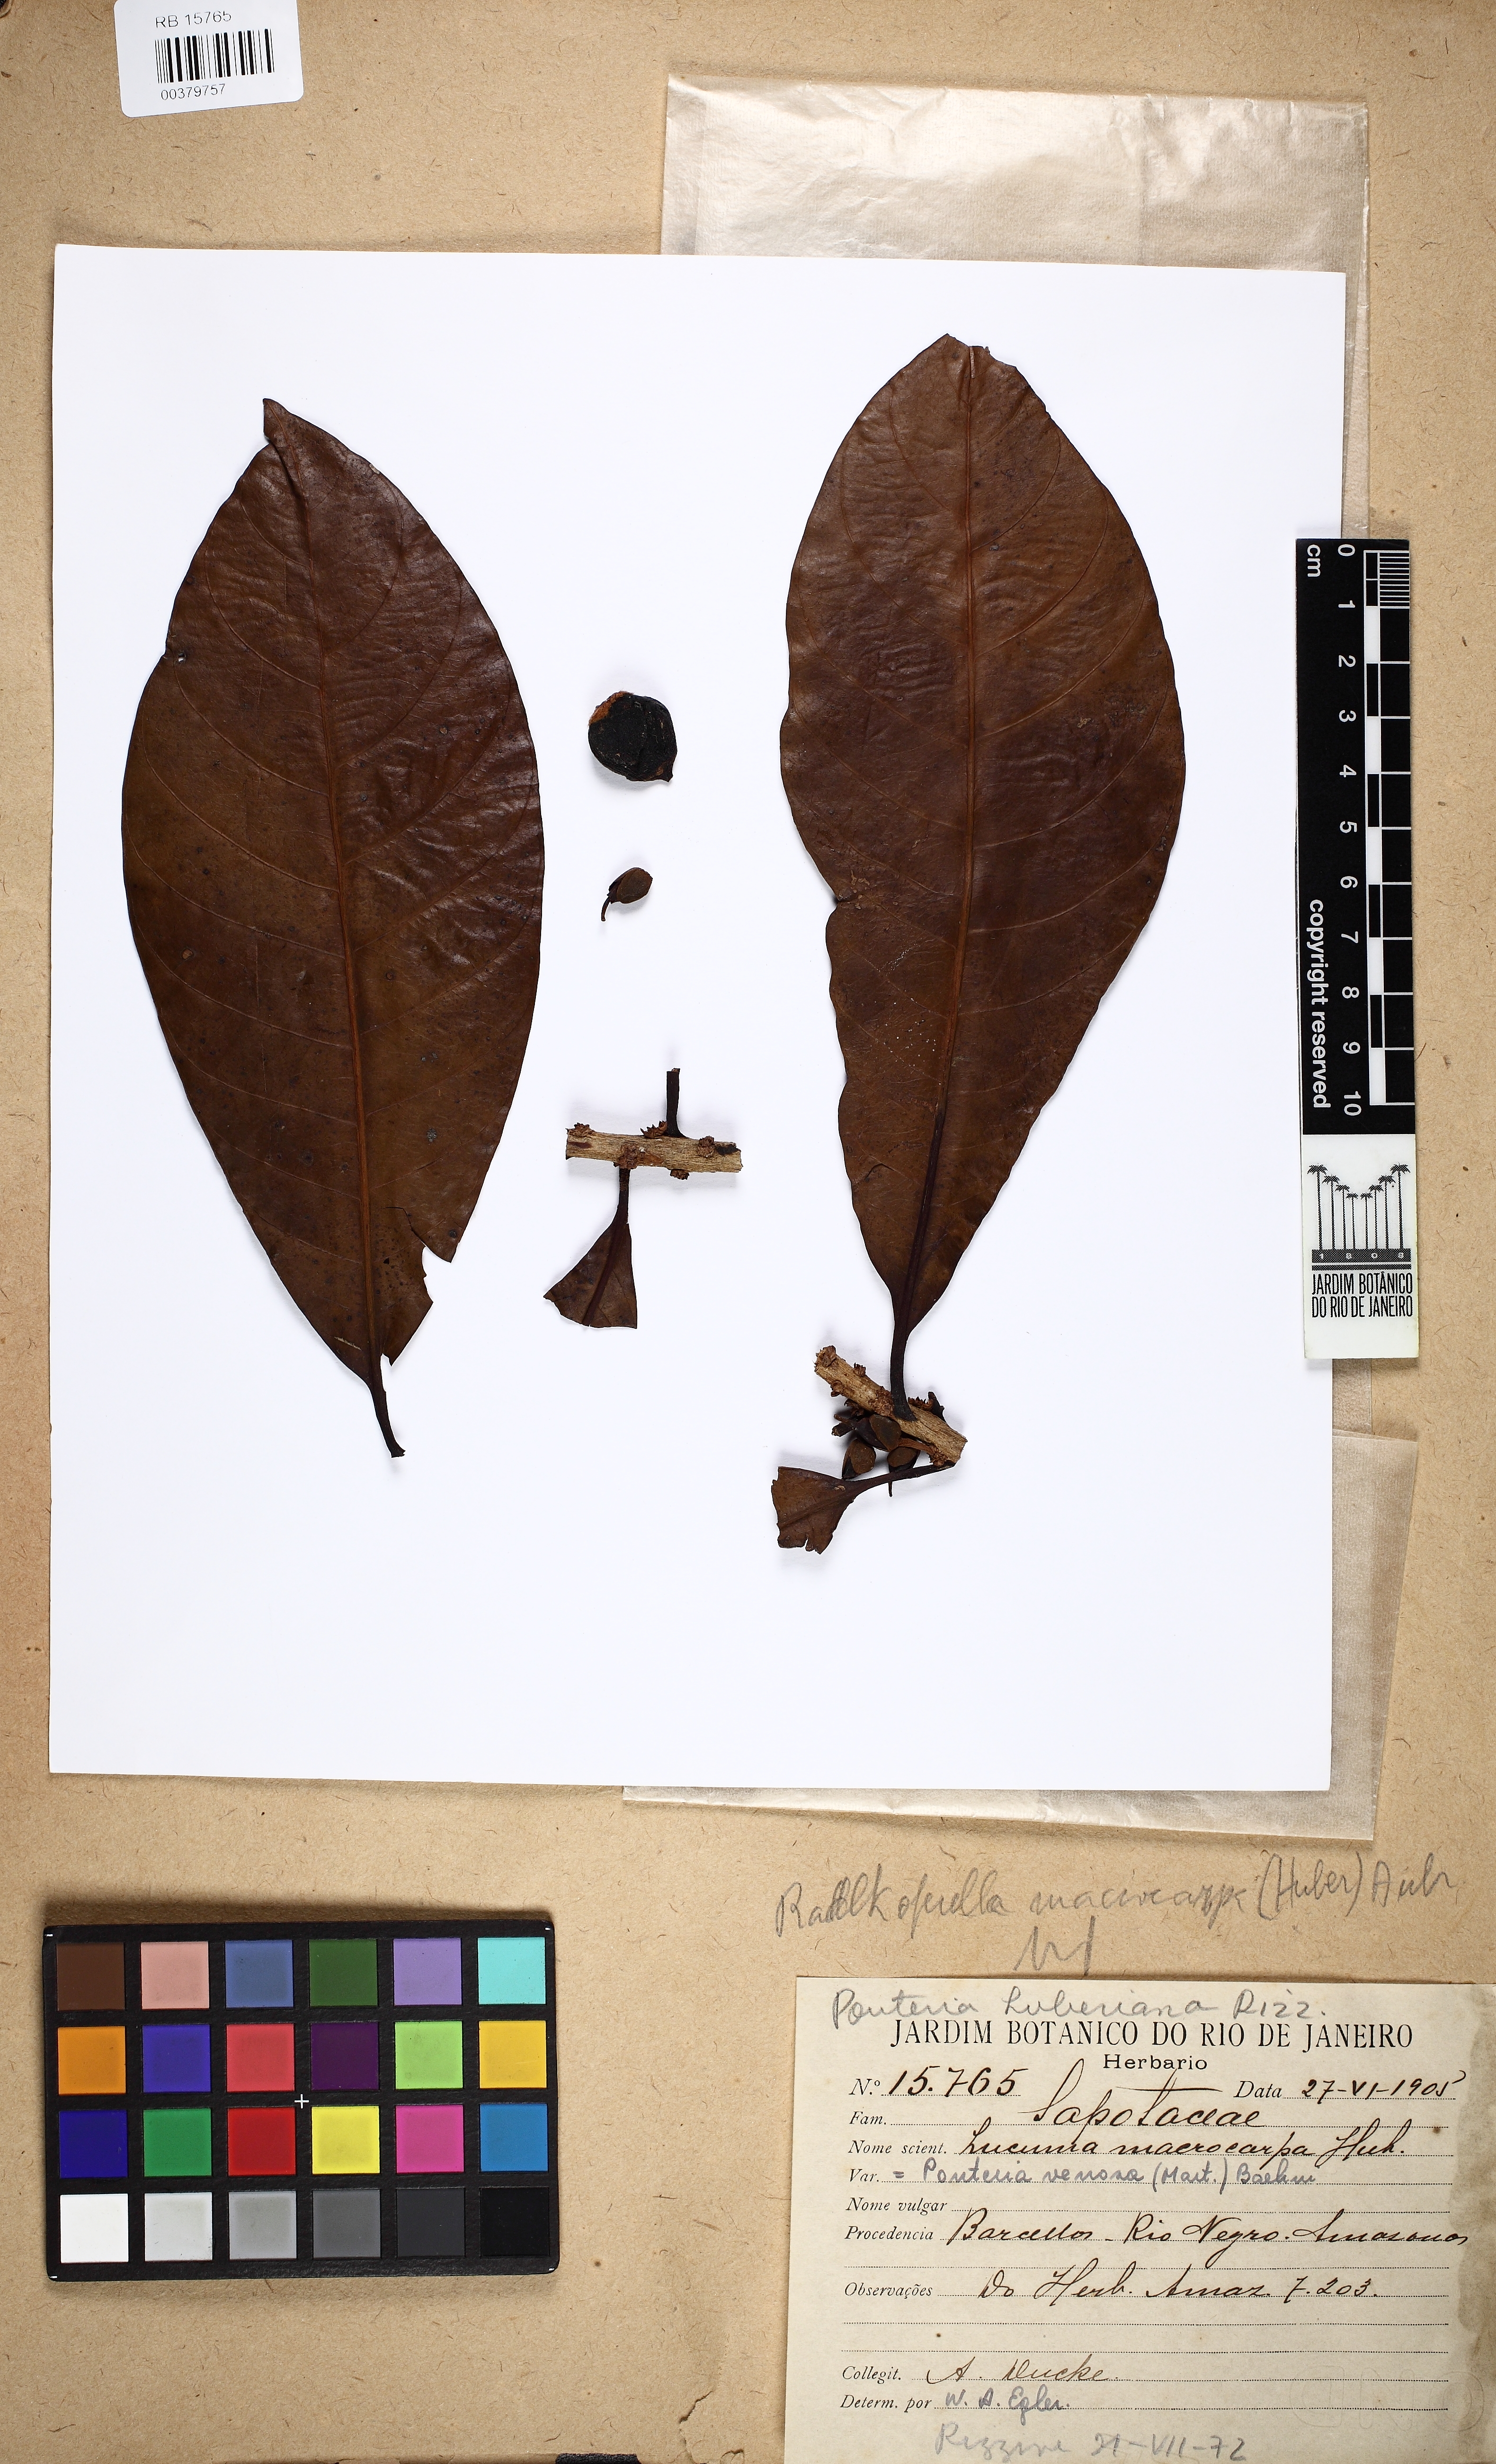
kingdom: Plantae
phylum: Tracheophyta
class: Magnoliopsida
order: Ericales
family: Sapotaceae
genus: Pouteria
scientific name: Pouteria multiflora
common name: Bullytree
